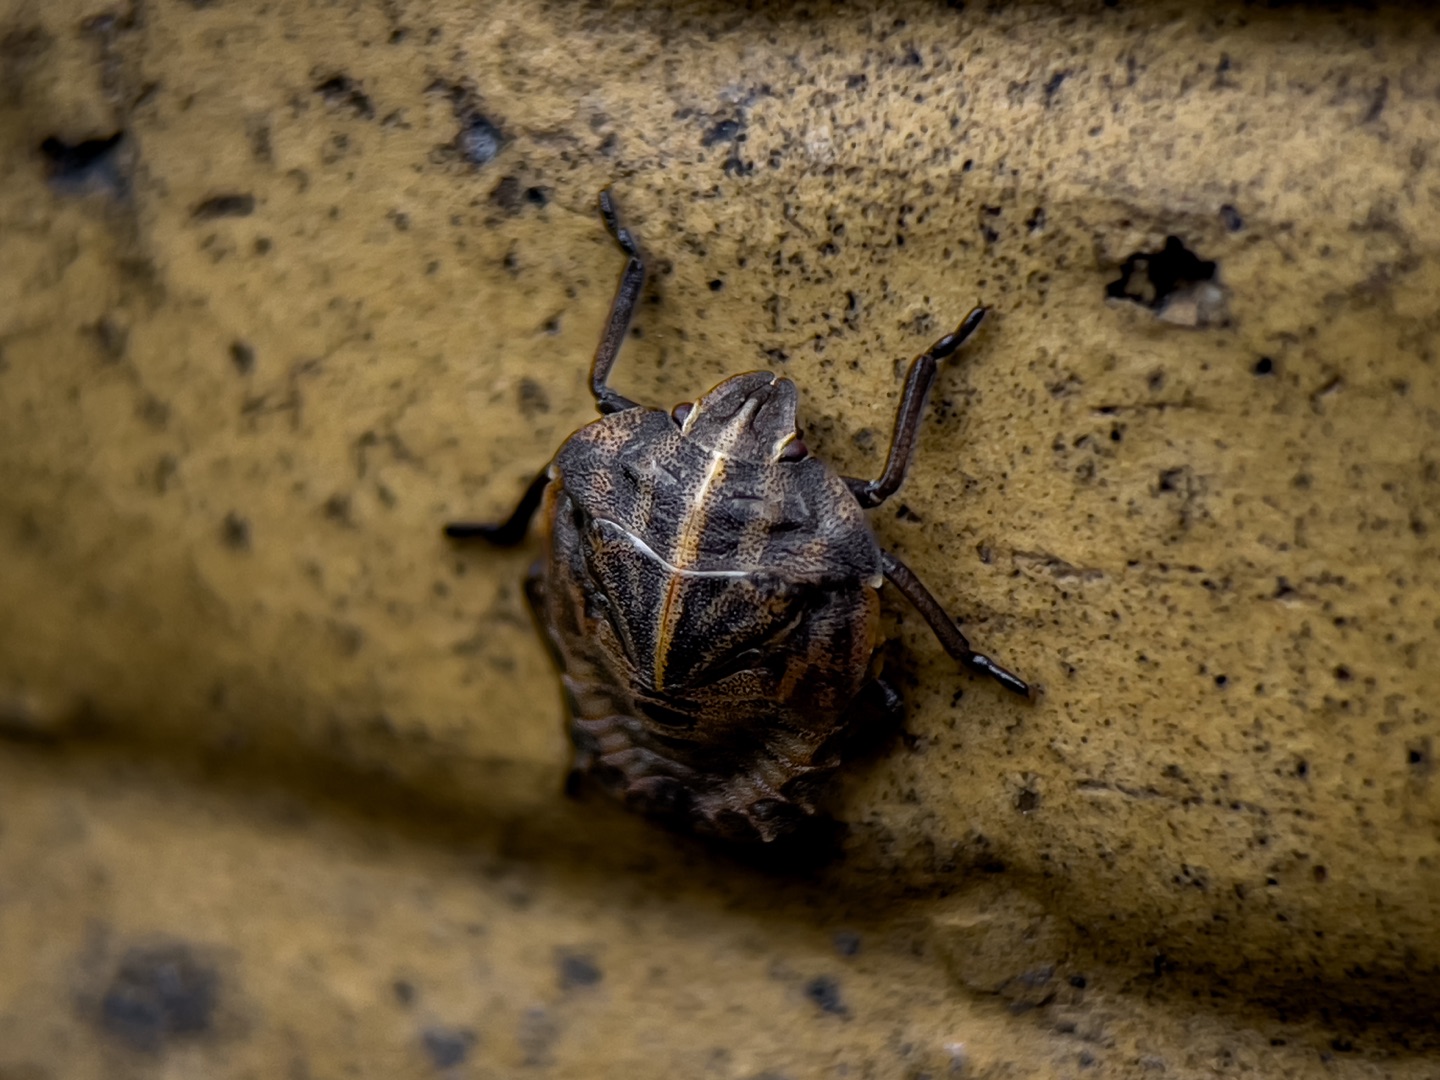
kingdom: Animalia
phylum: Arthropoda
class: Insecta
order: Hemiptera
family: Pentatomidae
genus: Graphosoma
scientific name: Graphosoma italicum
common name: Stribetæge
